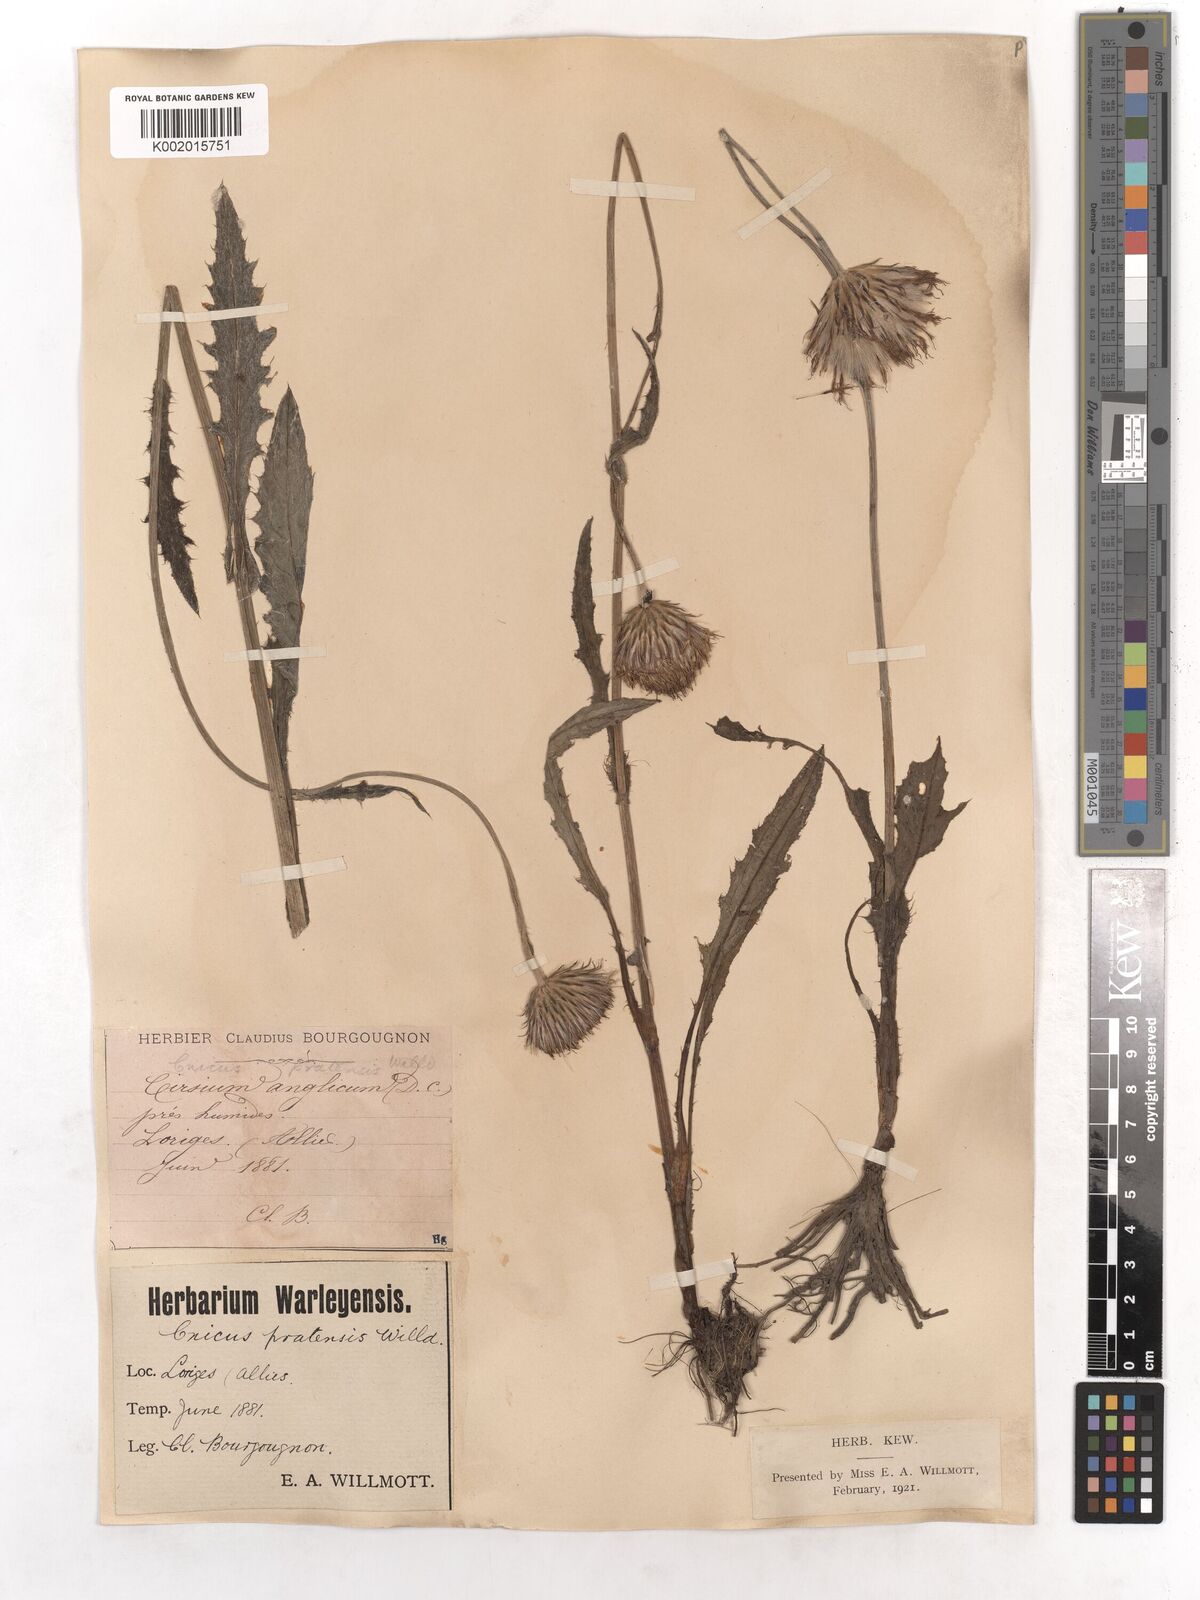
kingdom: Plantae
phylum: Tracheophyta
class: Magnoliopsida
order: Asterales
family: Asteraceae
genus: Cirsium
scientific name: Cirsium dissectum
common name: Meadow thistle
